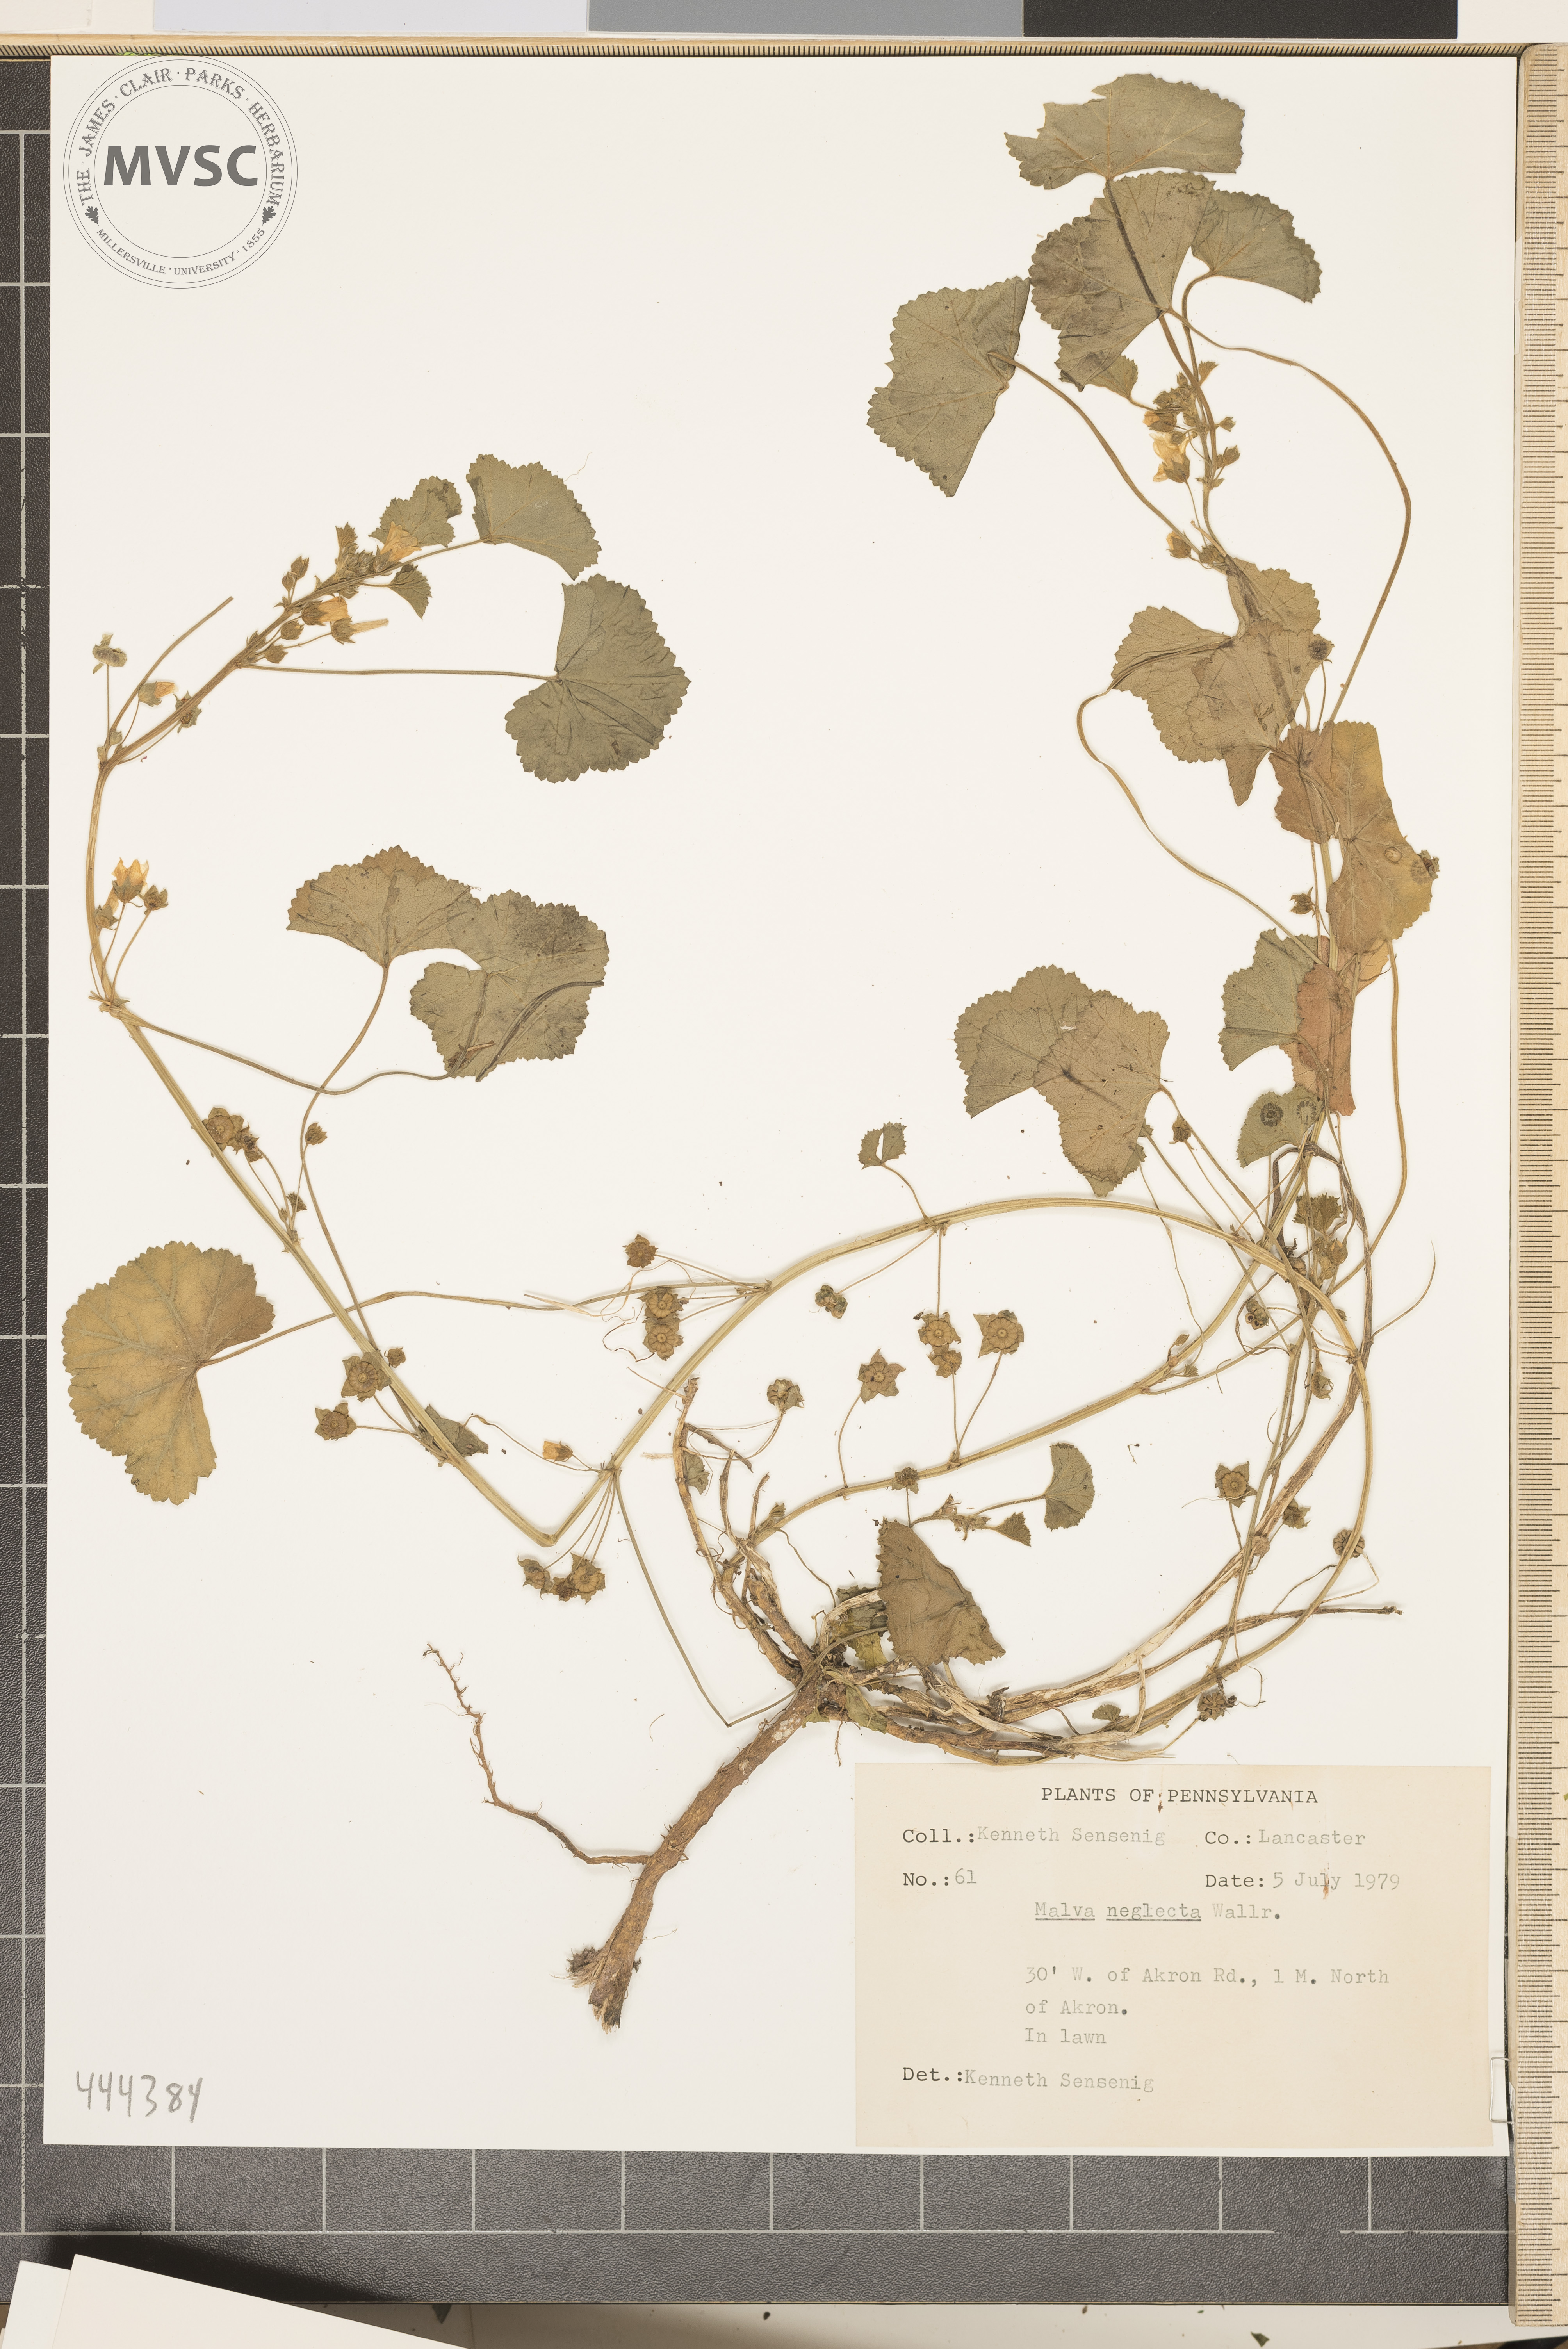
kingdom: Plantae
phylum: Tracheophyta
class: Magnoliopsida
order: Malvales
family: Malvaceae
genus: Malva
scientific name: Malva neglecta
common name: Common mallow
